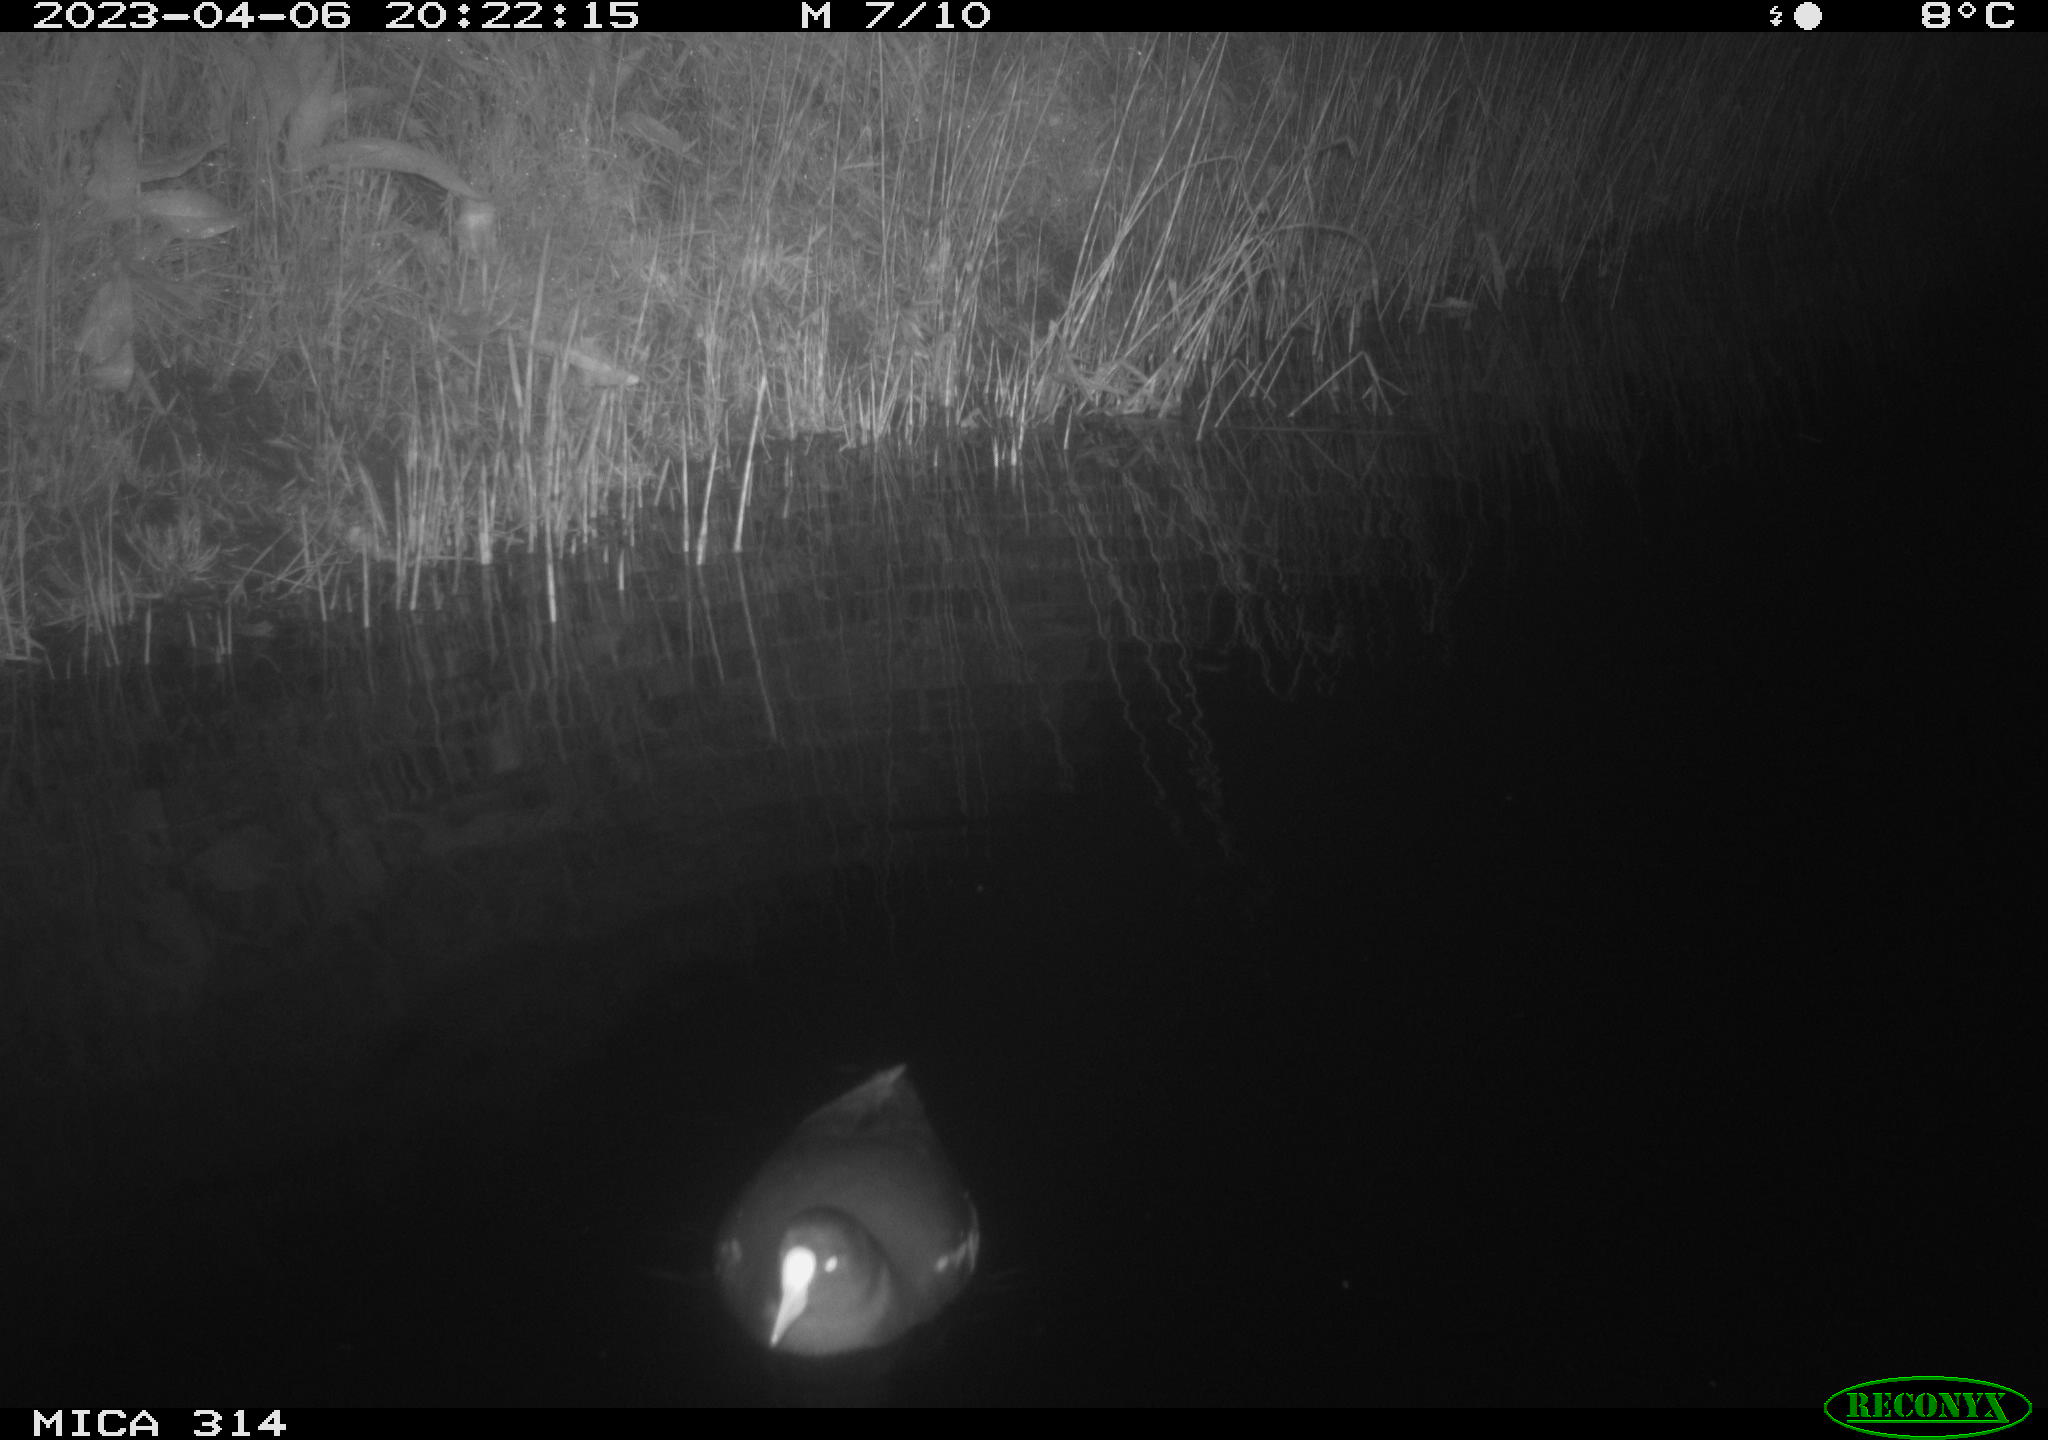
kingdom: Animalia
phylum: Chordata
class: Aves
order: Gruiformes
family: Rallidae
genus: Gallinula
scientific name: Gallinula chloropus
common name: Common moorhen
